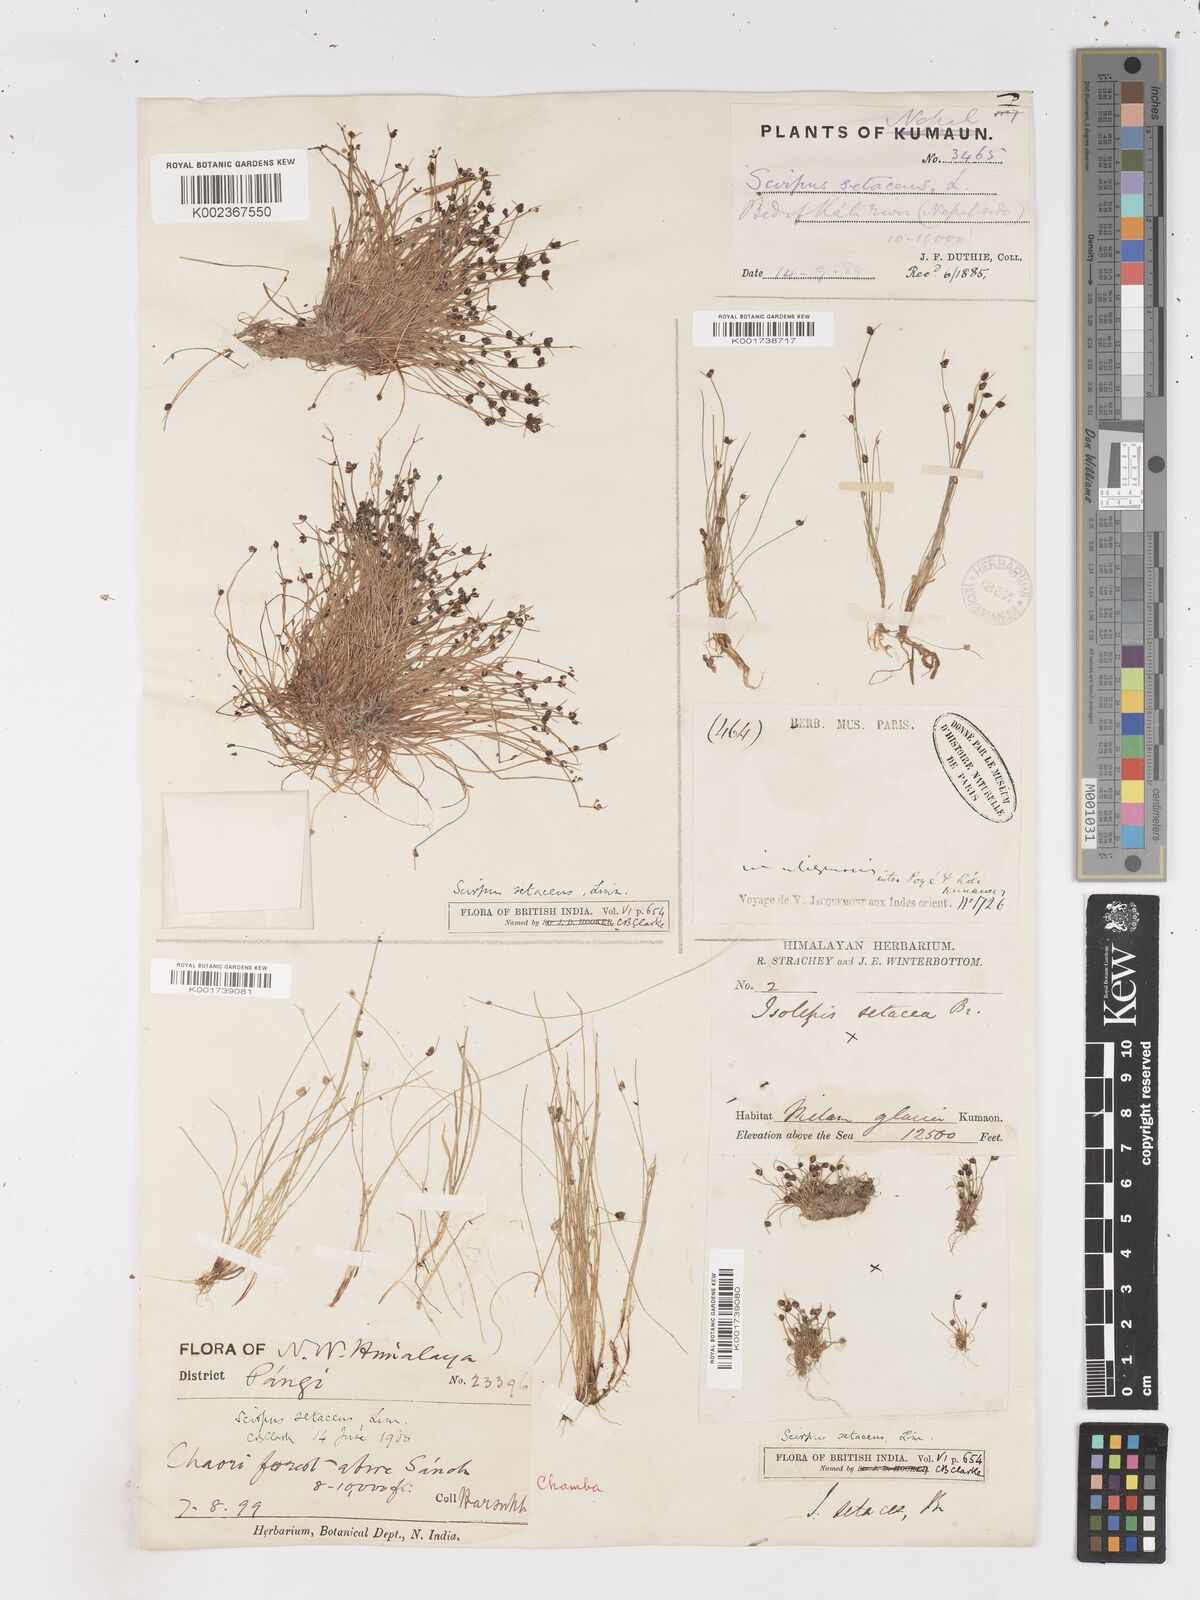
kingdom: Plantae
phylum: Tracheophyta
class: Liliopsida
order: Poales
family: Cyperaceae
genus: Isolepis
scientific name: Isolepis setacea
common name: Bristle club-rush
